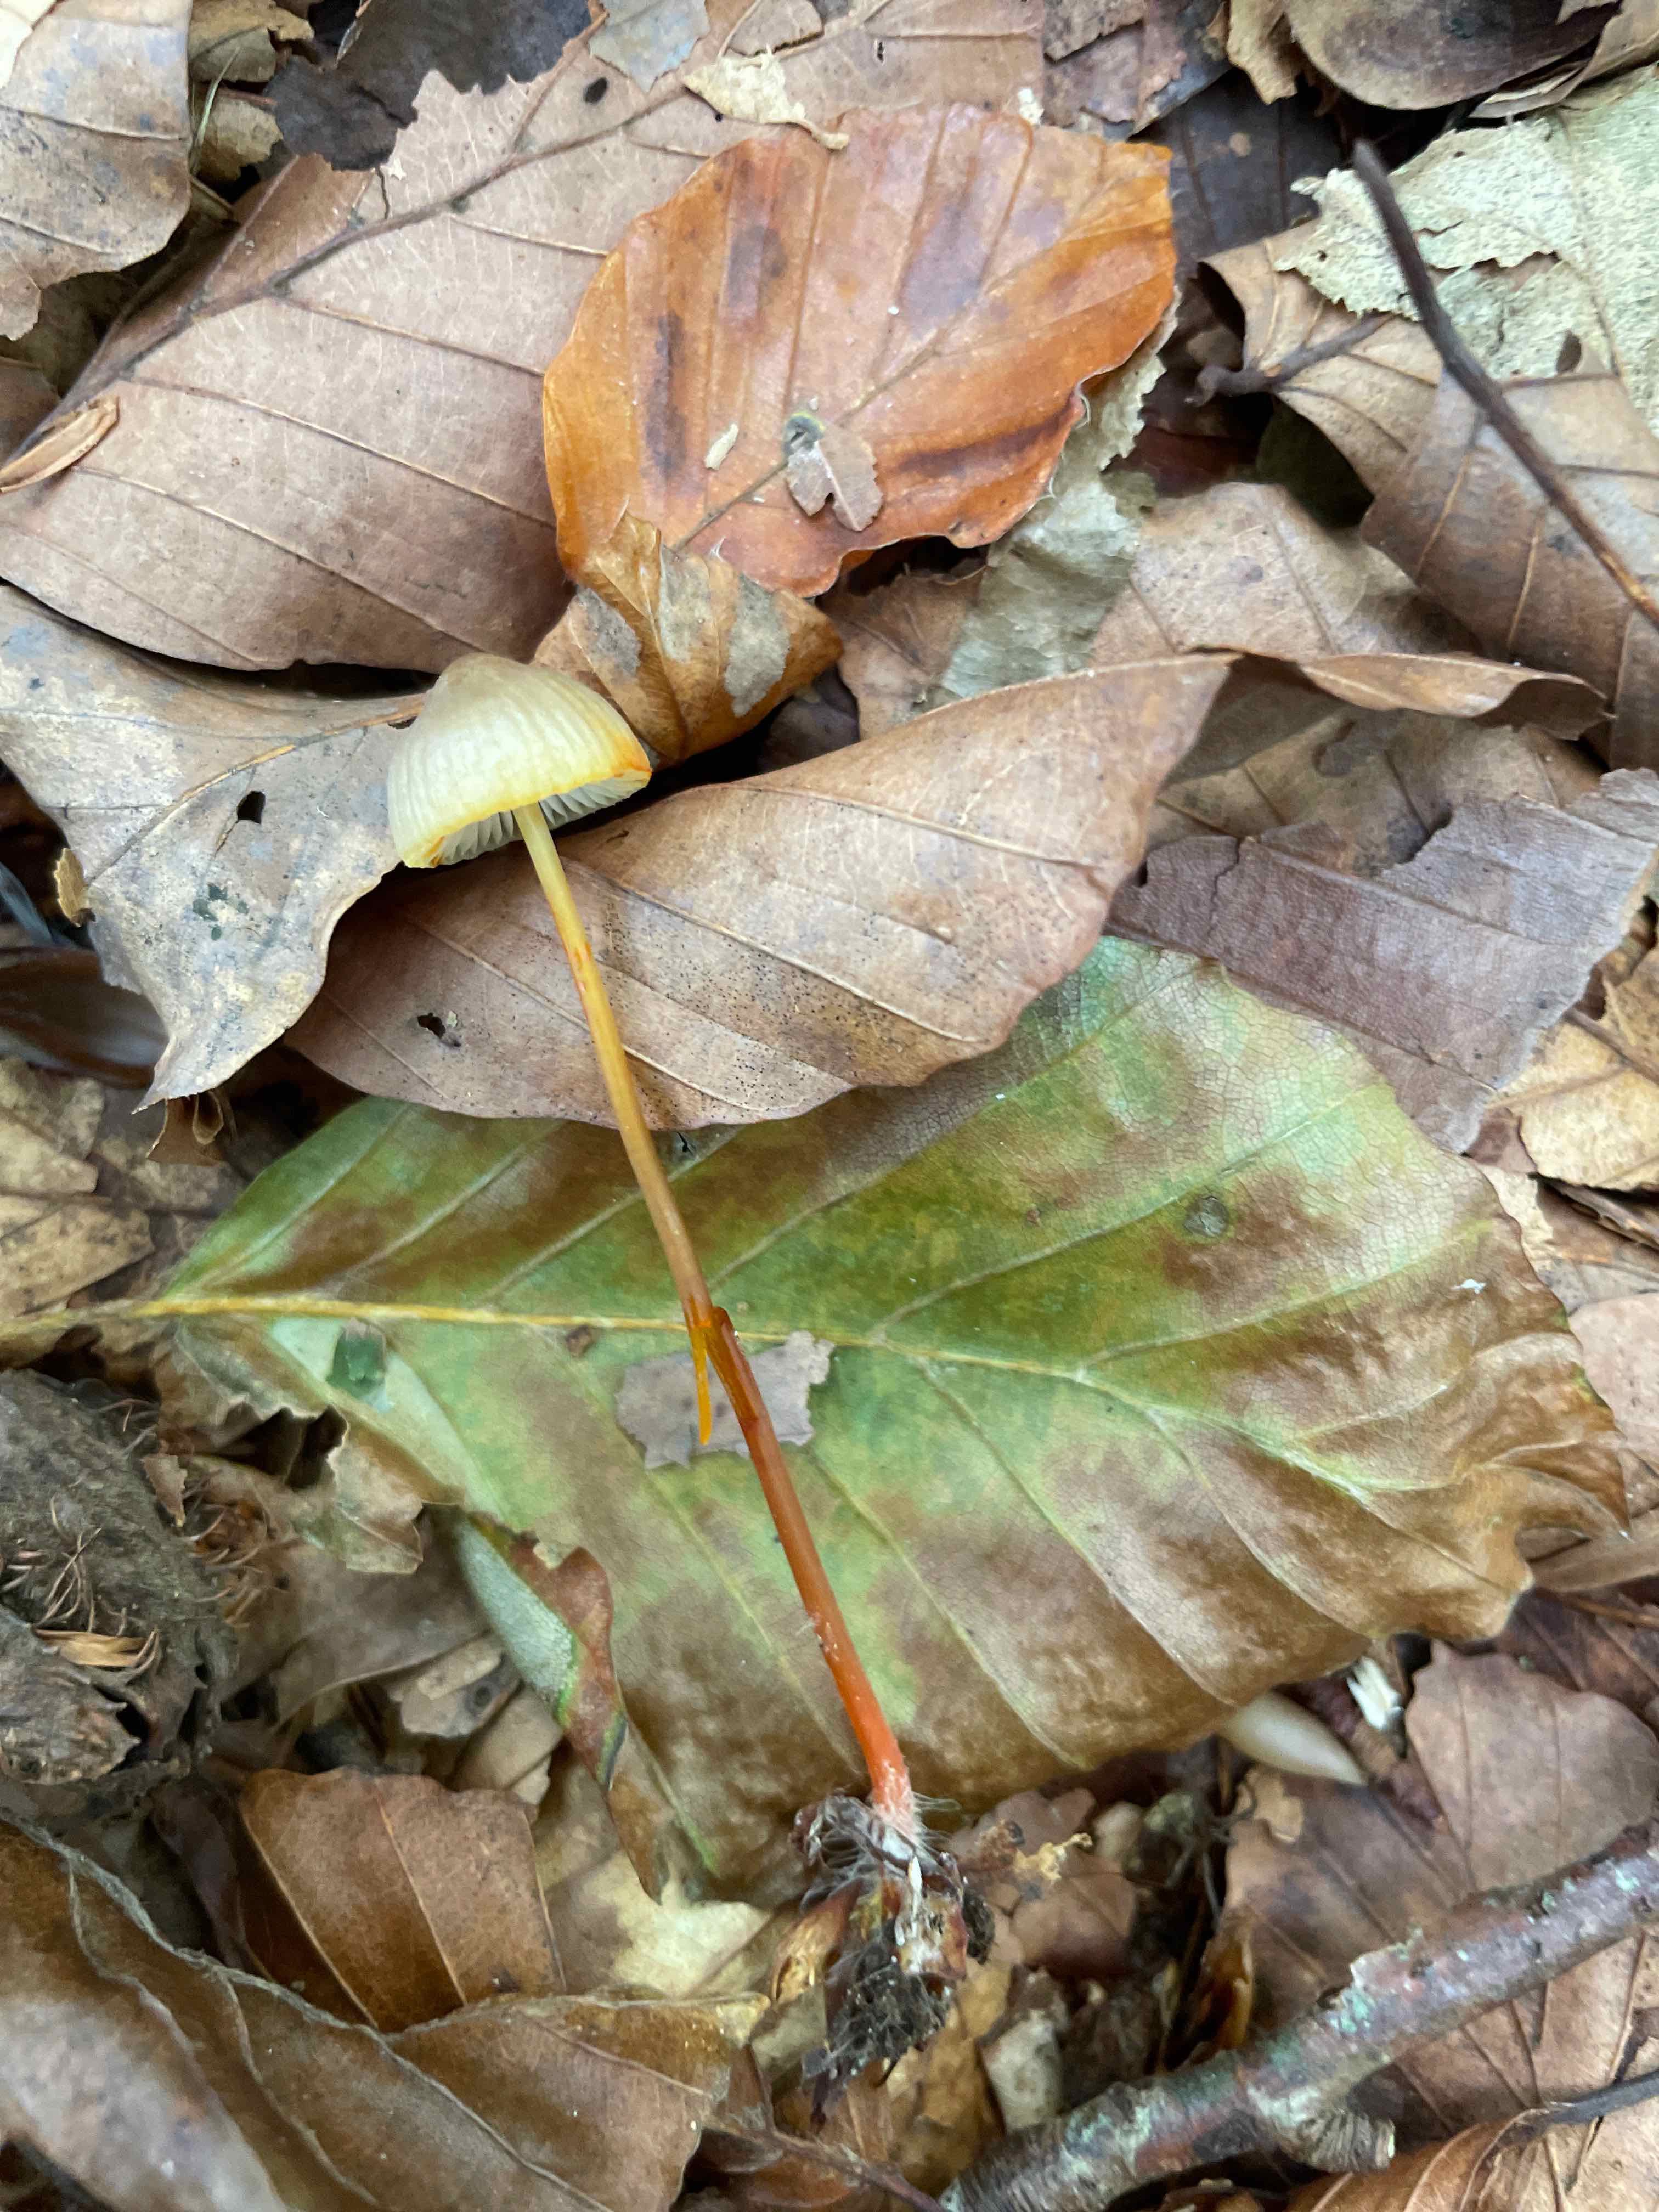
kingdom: Fungi
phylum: Basidiomycota
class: Agaricomycetes
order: Agaricales
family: Mycenaceae
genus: Mycena
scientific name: Mycena crocata
